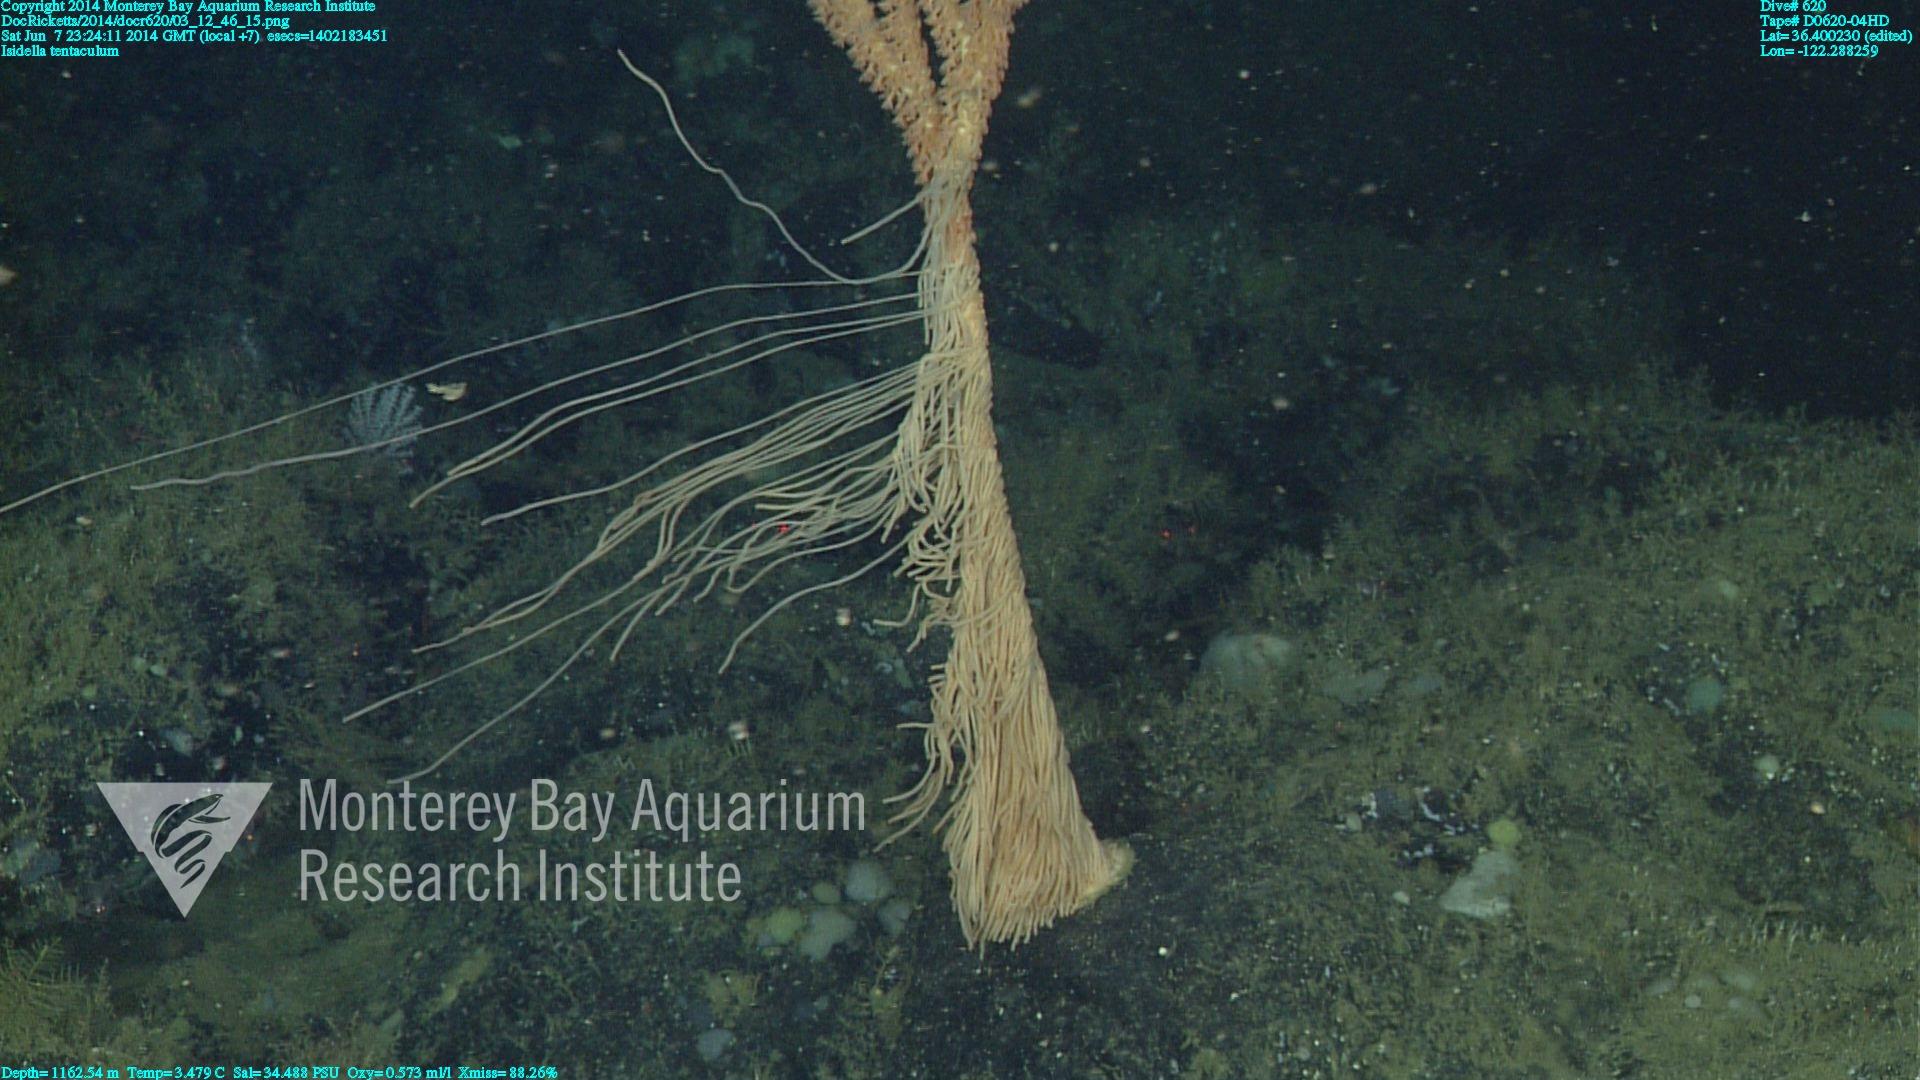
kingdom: Animalia
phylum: Cnidaria
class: Anthozoa
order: Scleralcyonacea
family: Keratoisididae
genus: Isidella
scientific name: Isidella tentaculum
